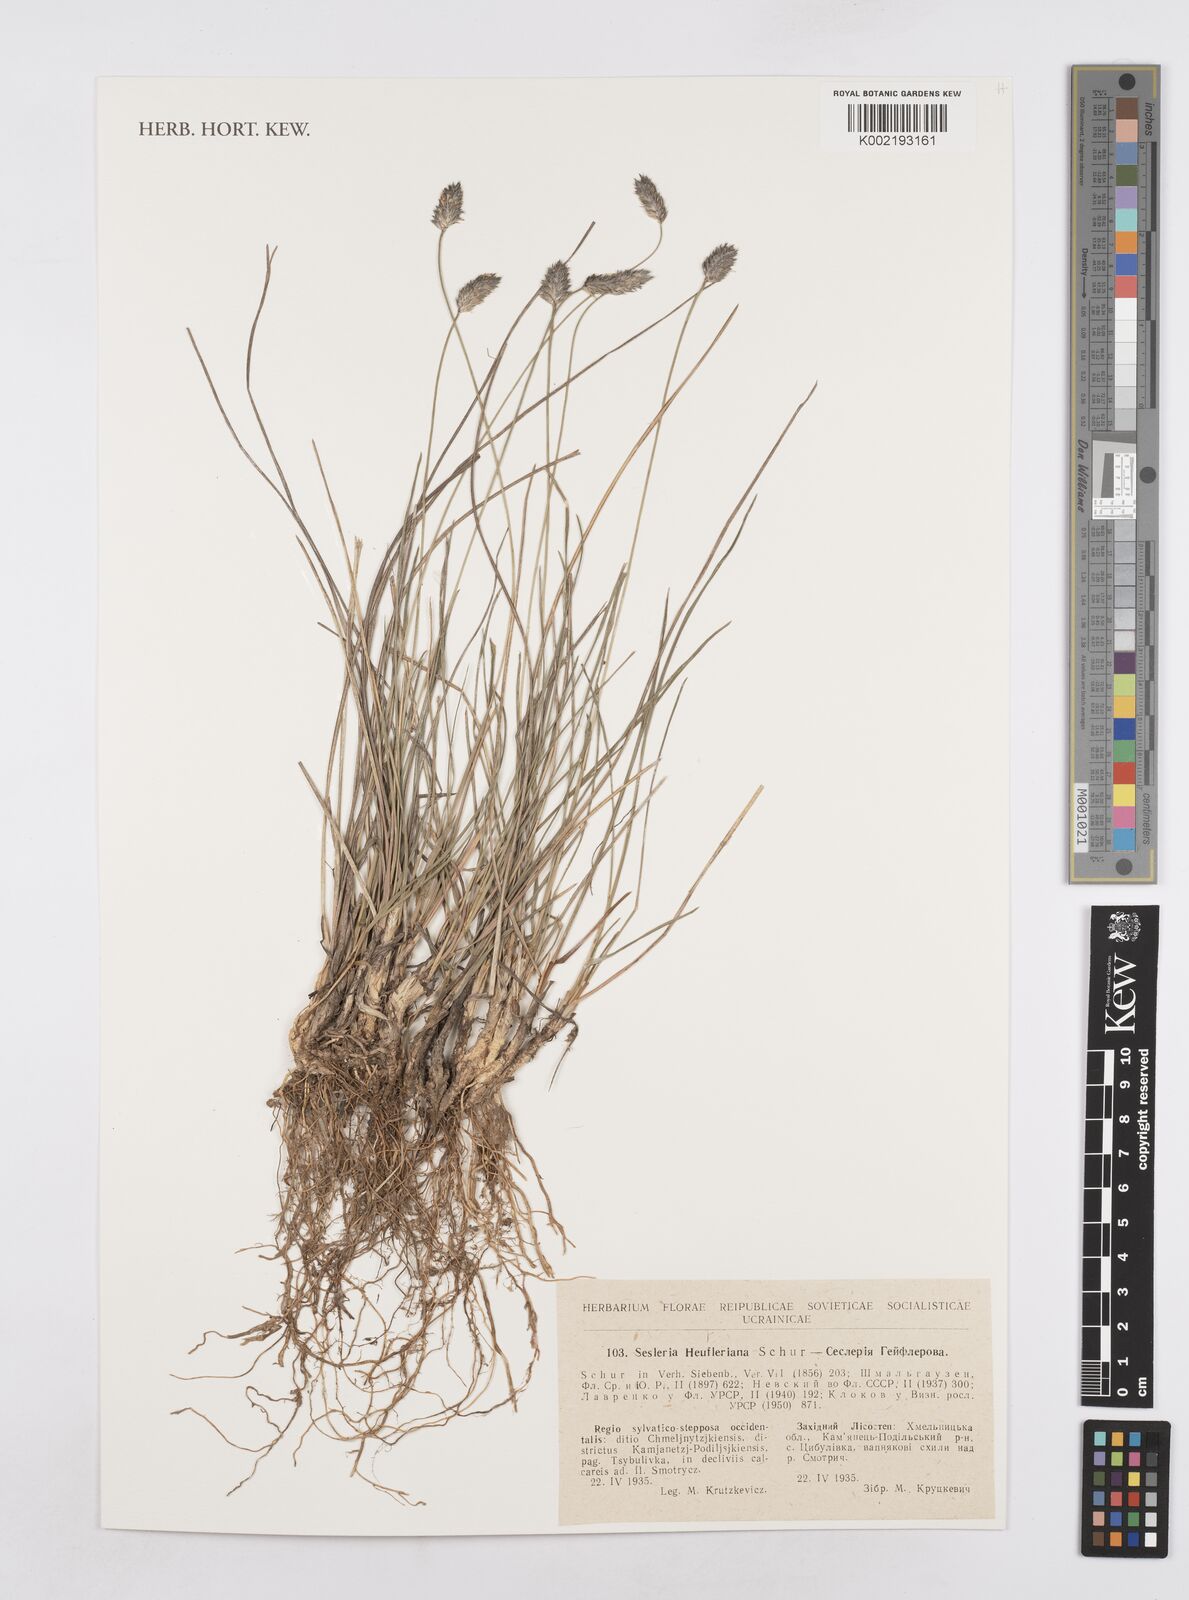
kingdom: Plantae
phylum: Tracheophyta
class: Liliopsida
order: Poales
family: Poaceae
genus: Sesleria
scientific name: Sesleria heufleriana
